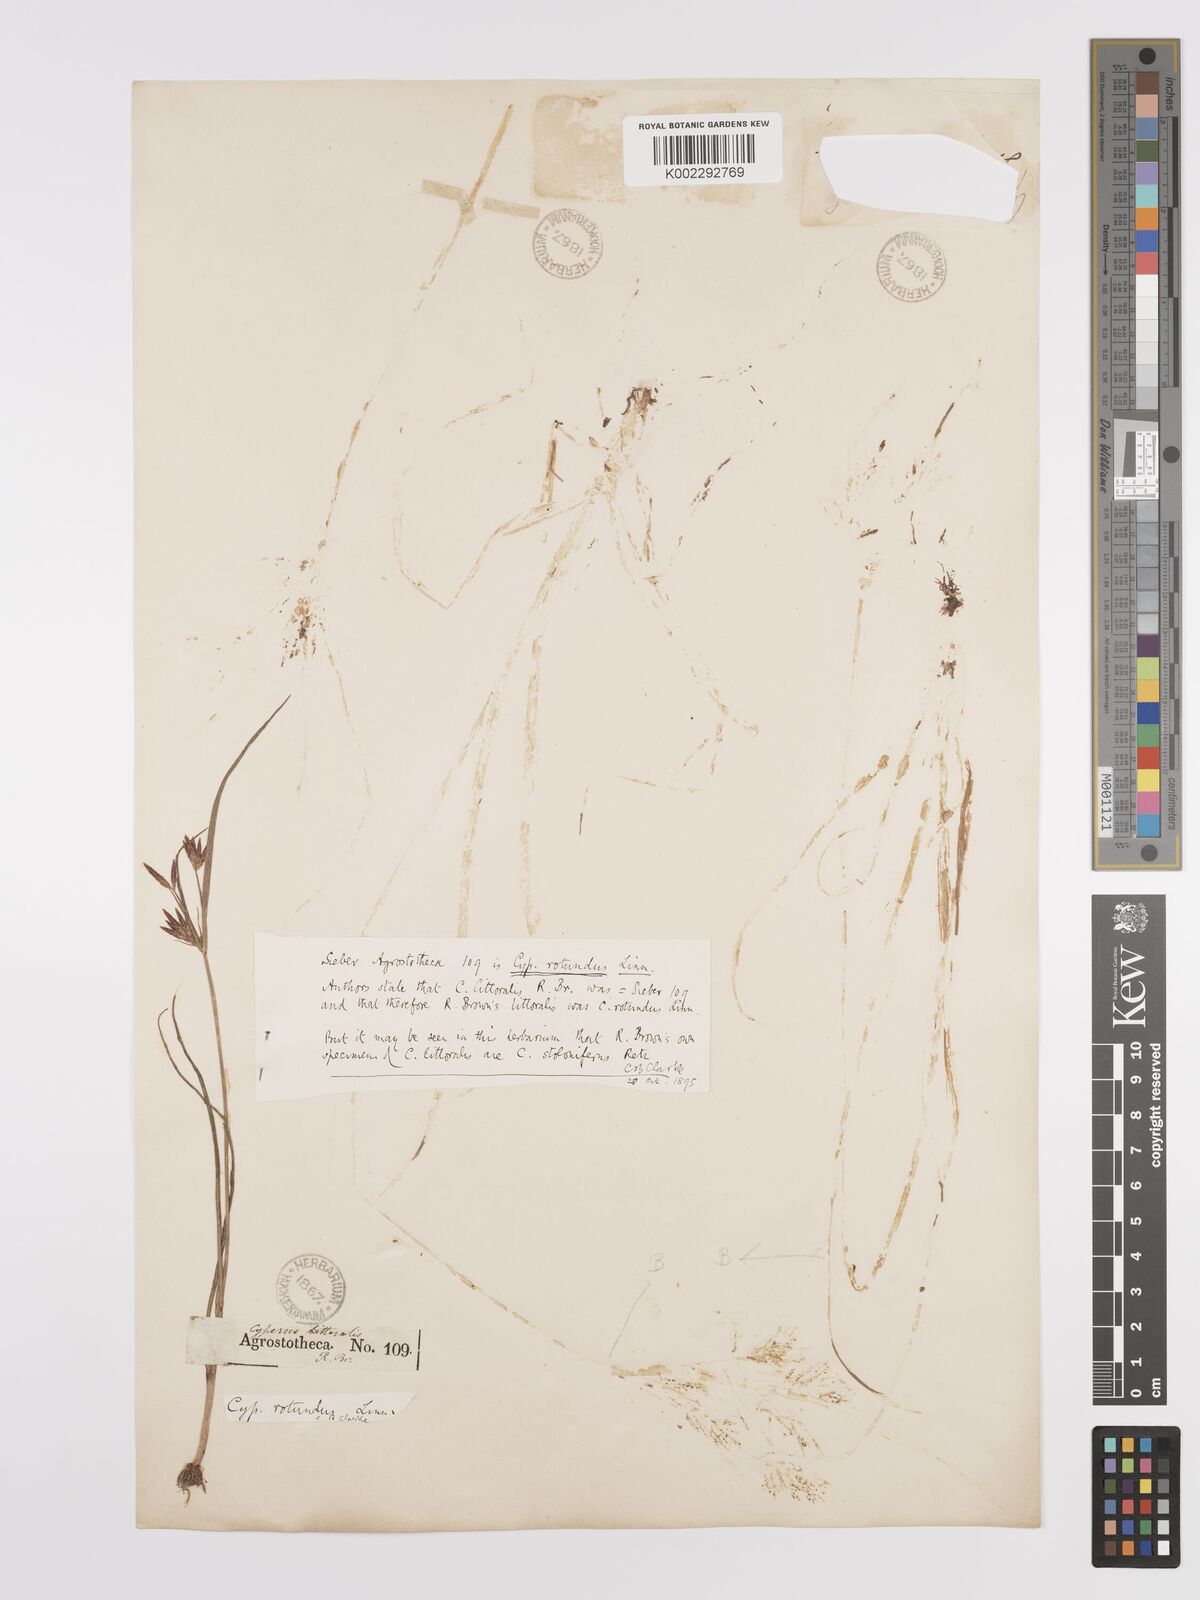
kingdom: Plantae
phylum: Tracheophyta
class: Liliopsida
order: Poales
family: Cyperaceae
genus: Cyperus
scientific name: Cyperus rotundus
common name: Nutgrass
